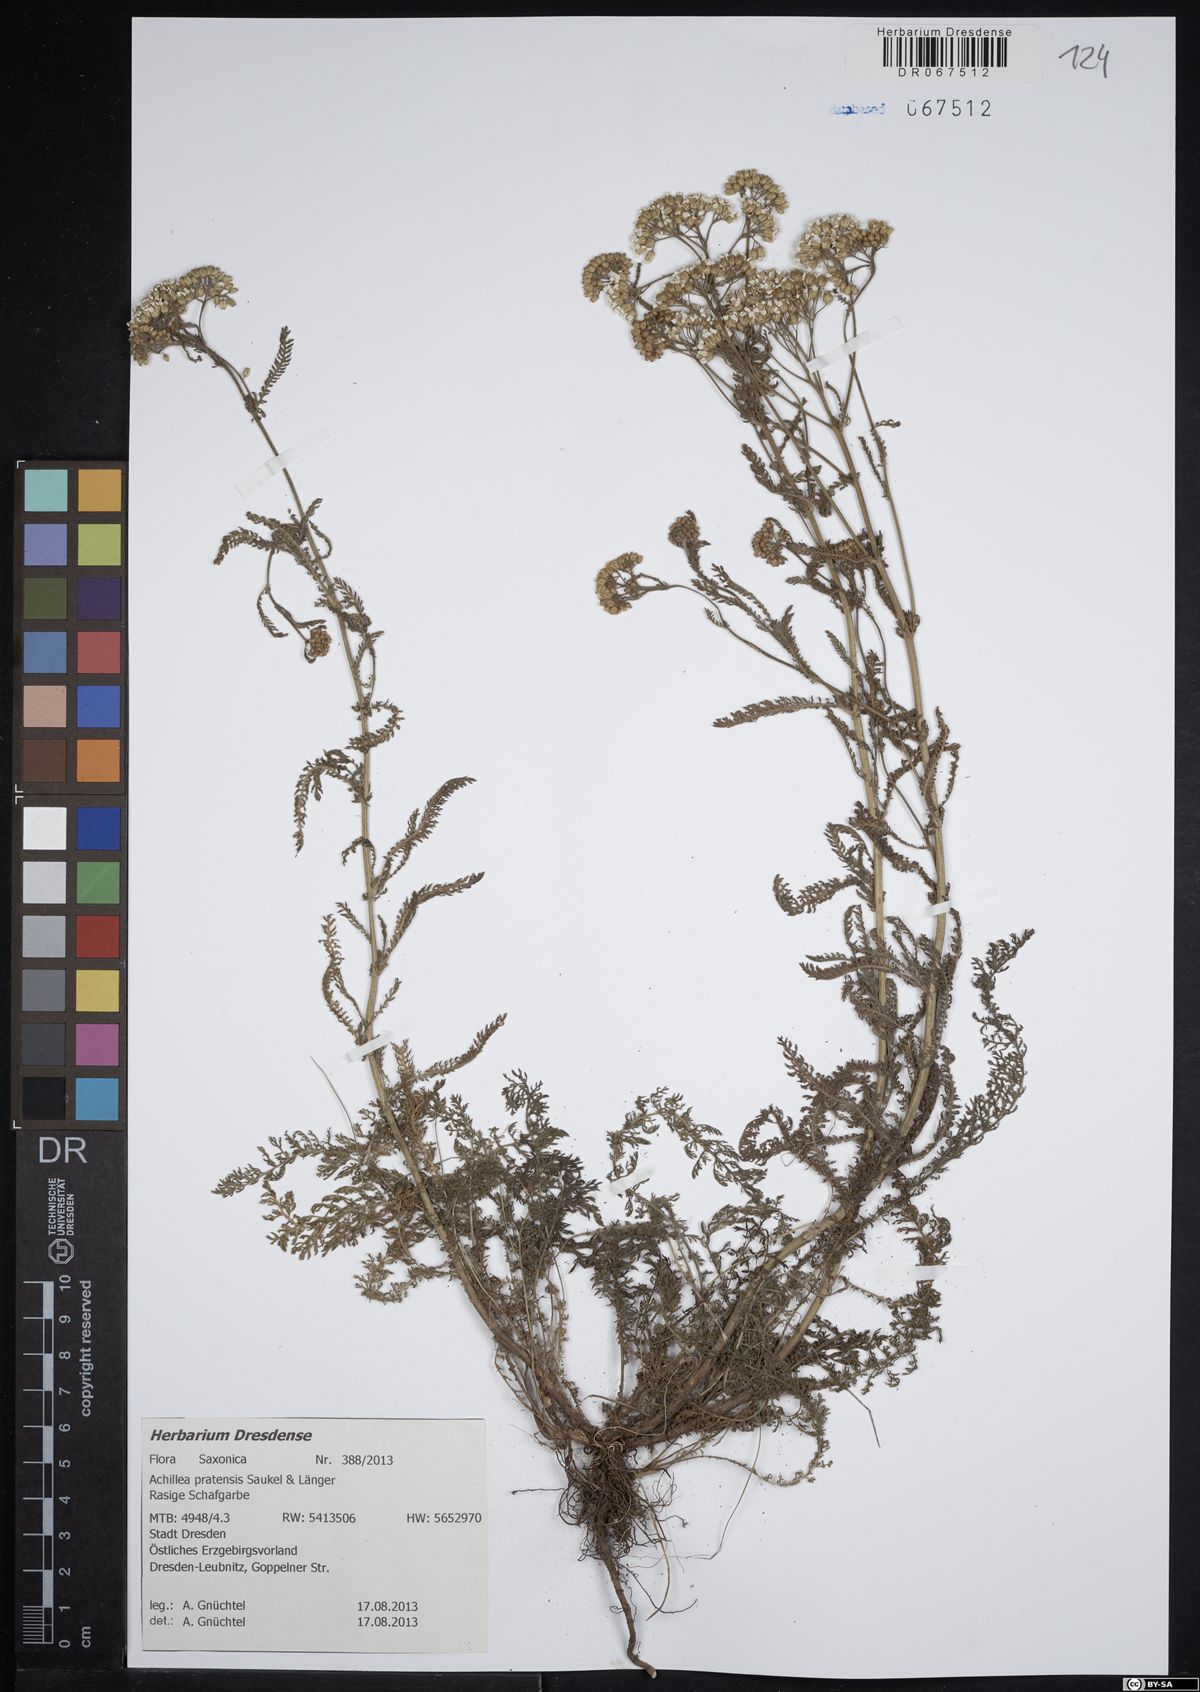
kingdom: Plantae
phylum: Tracheophyta
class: Magnoliopsida
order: Asterales
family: Asteraceae
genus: Achillea
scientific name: Achillea pratensis
